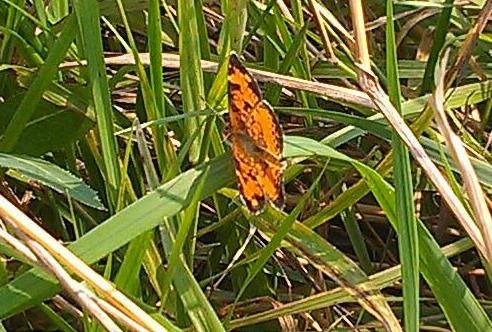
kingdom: Animalia
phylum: Arthropoda
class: Insecta
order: Lepidoptera
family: Nymphalidae
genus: Phyciodes
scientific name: Phyciodes tharos
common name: Northern Crescent
